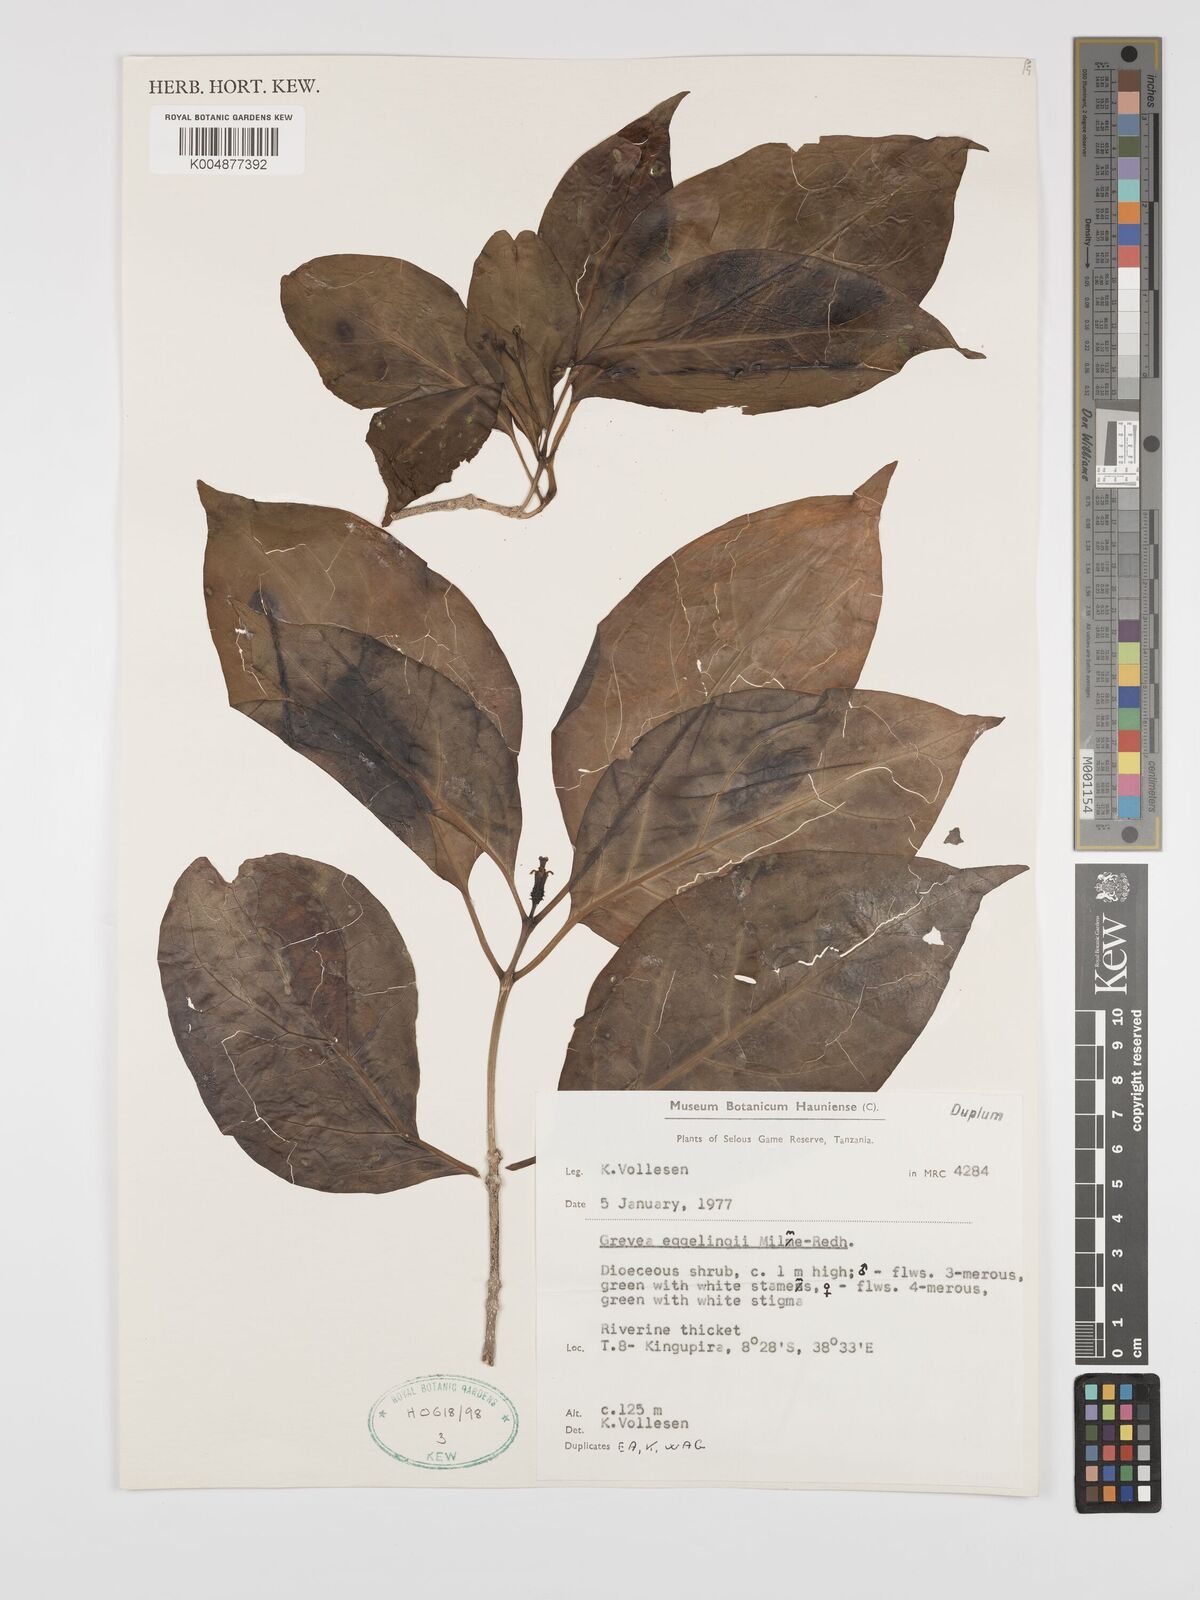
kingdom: Plantae
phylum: Tracheophyta
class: Magnoliopsida
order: Solanales
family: Montiniaceae
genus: Grevea
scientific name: Grevea eggelingii
